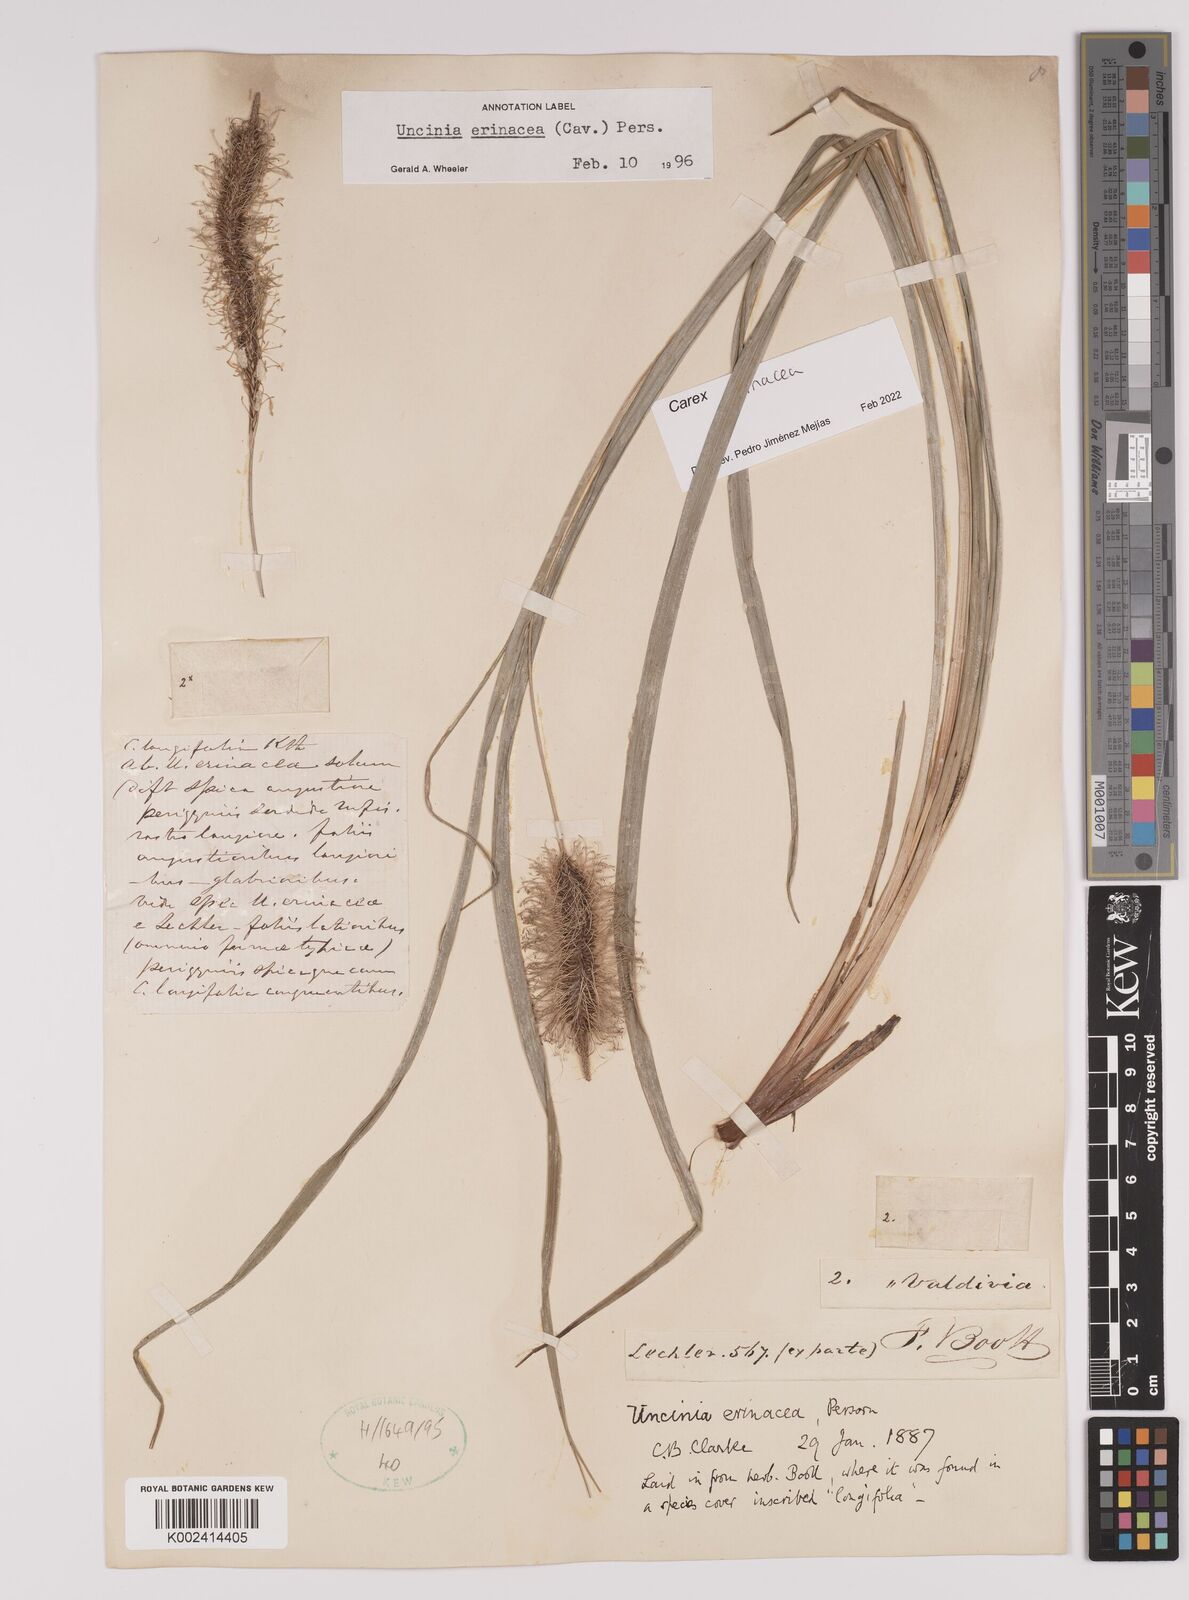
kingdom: Plantae
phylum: Tracheophyta
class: Liliopsida
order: Poales
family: Cyperaceae
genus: Carex
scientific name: Carex erinacea
